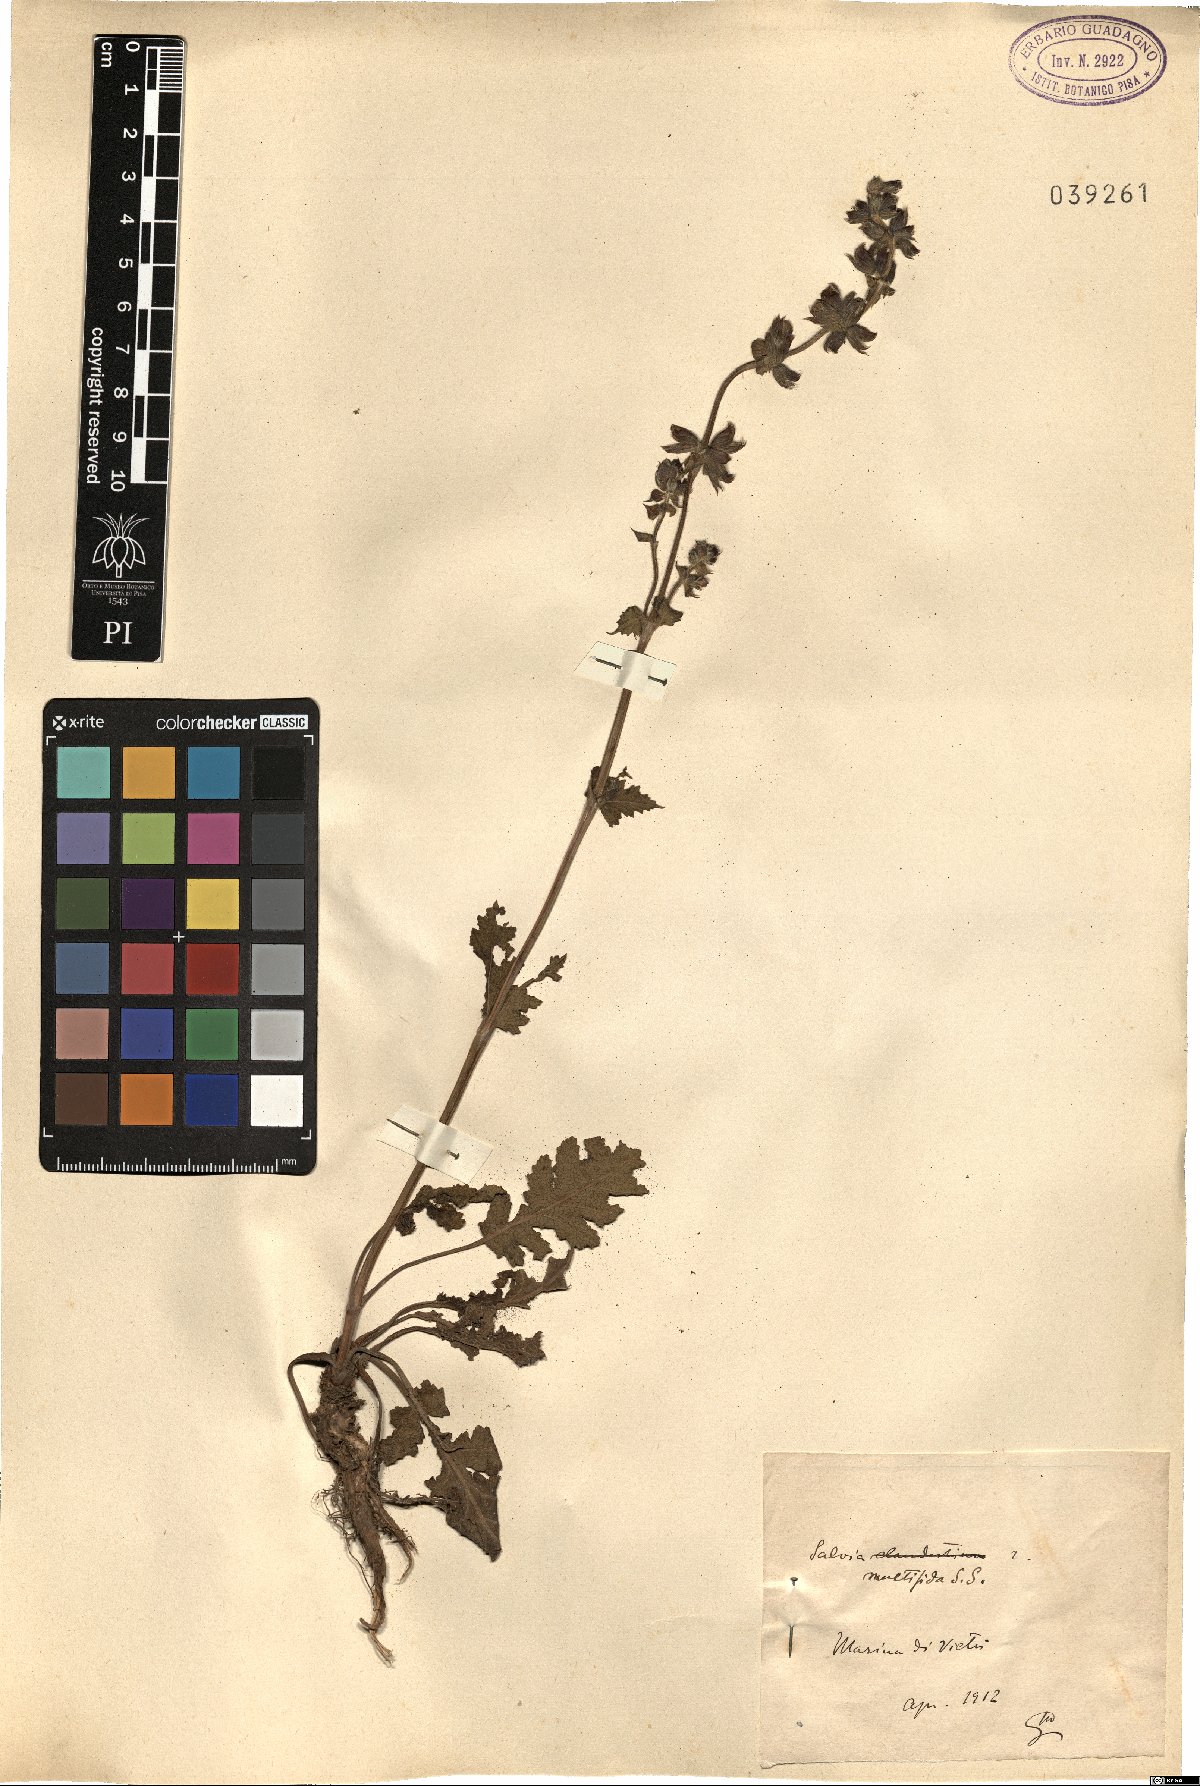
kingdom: Plantae
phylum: Tracheophyta
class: Magnoliopsida
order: Lamiales
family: Lamiaceae
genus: Salvia
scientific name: Salvia verbenaca
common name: Wild clary
